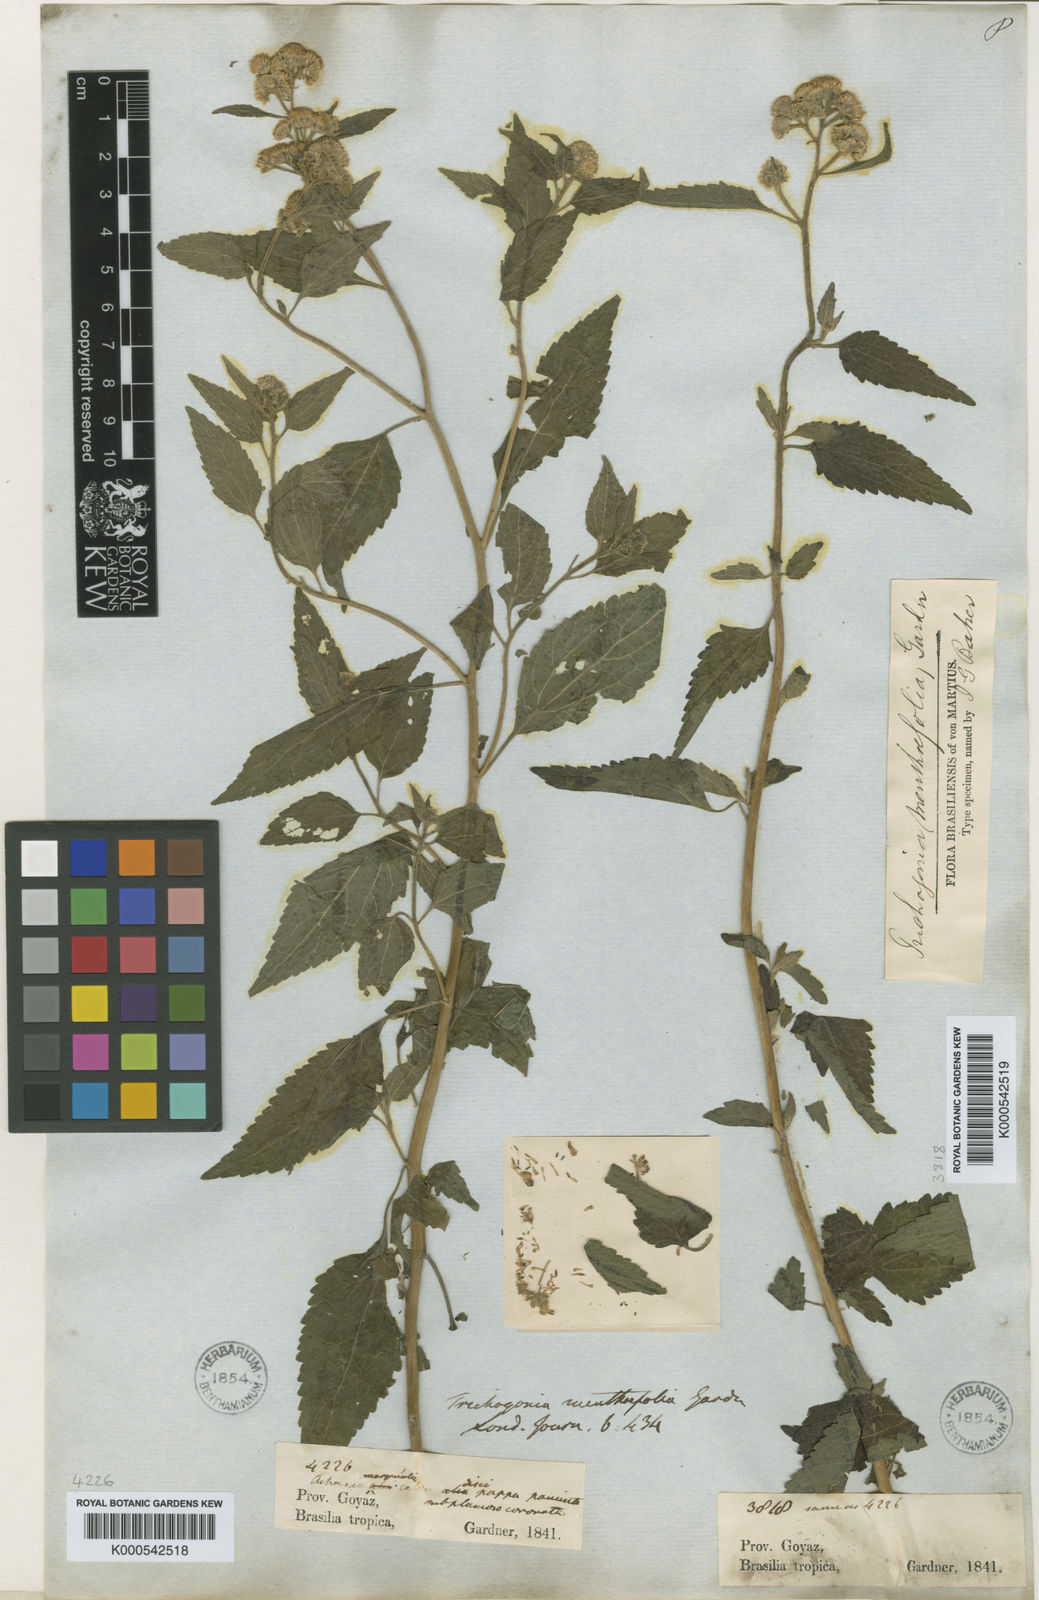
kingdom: Plantae
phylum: Tracheophyta
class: Magnoliopsida
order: Asterales
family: Asteraceae
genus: Trichogonia
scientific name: Trichogonia menthifolia
